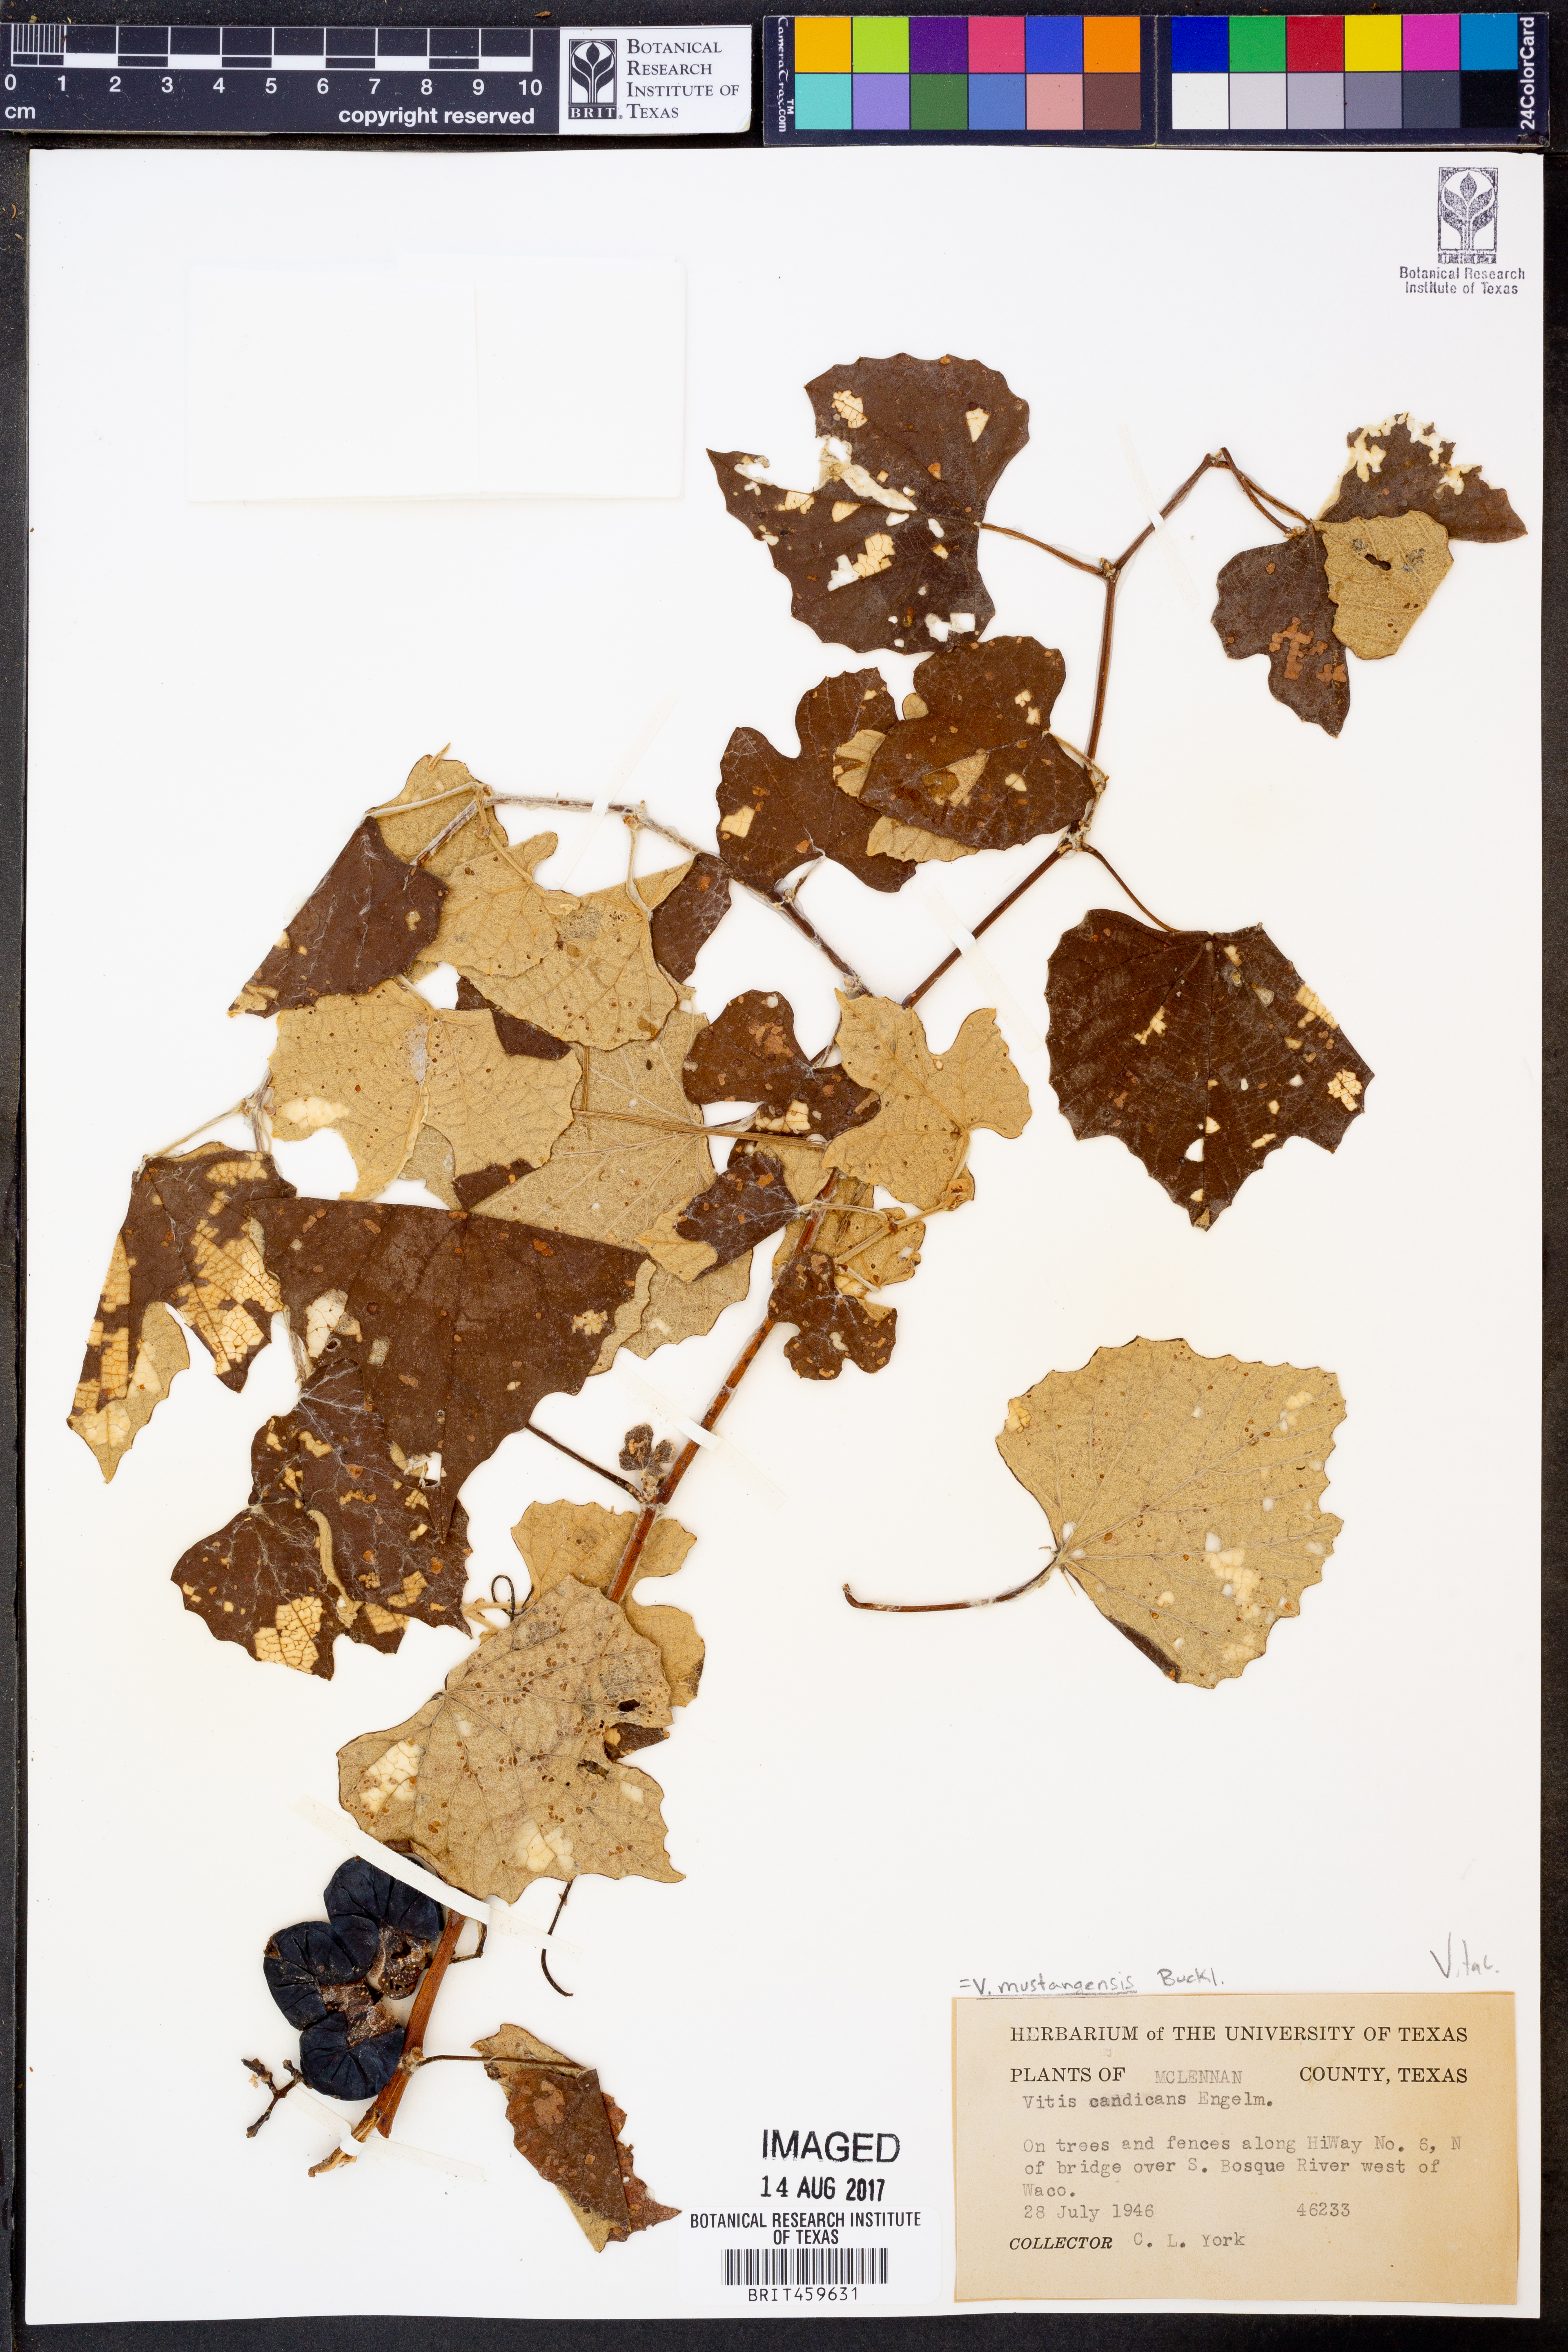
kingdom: Plantae
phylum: Tracheophyta
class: Magnoliopsida
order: Vitales
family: Vitaceae
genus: Vitis
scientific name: Vitis mustangensis
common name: Mustang grape
